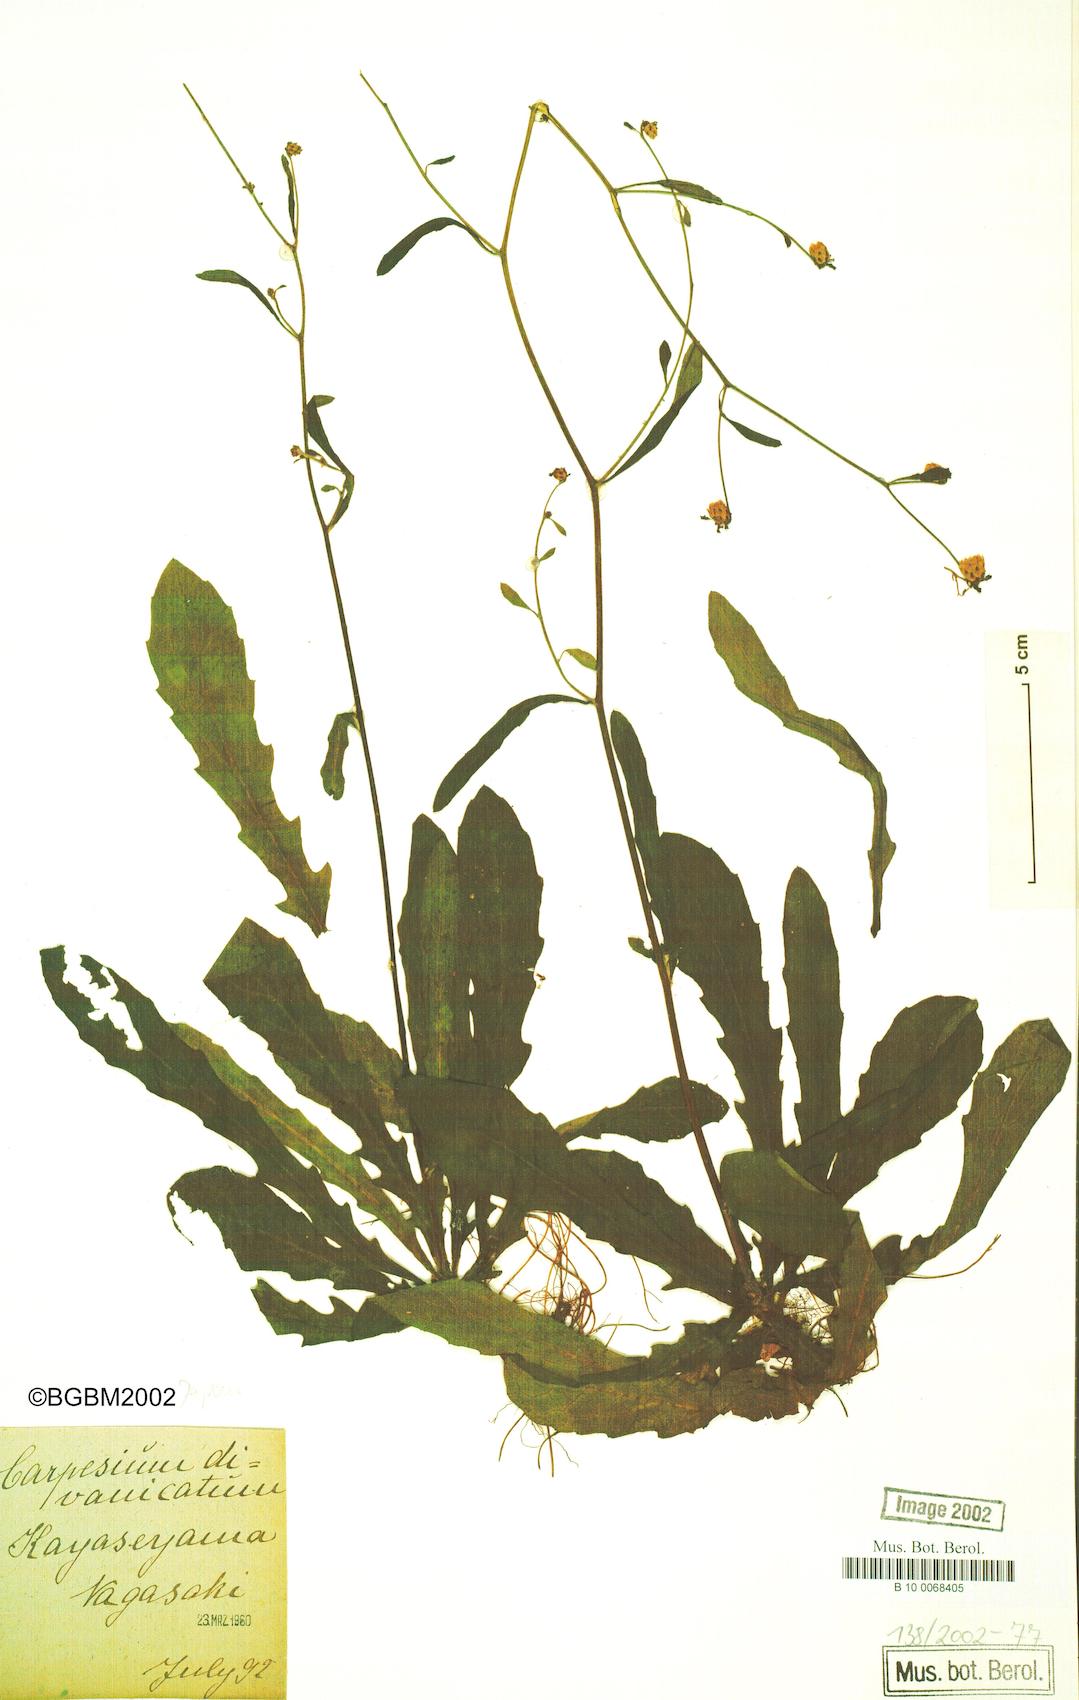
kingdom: Plantae
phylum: Tracheophyta
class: Magnoliopsida
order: Asterales
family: Asteraceae
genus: Carpesium
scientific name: Carpesium rosulatum
